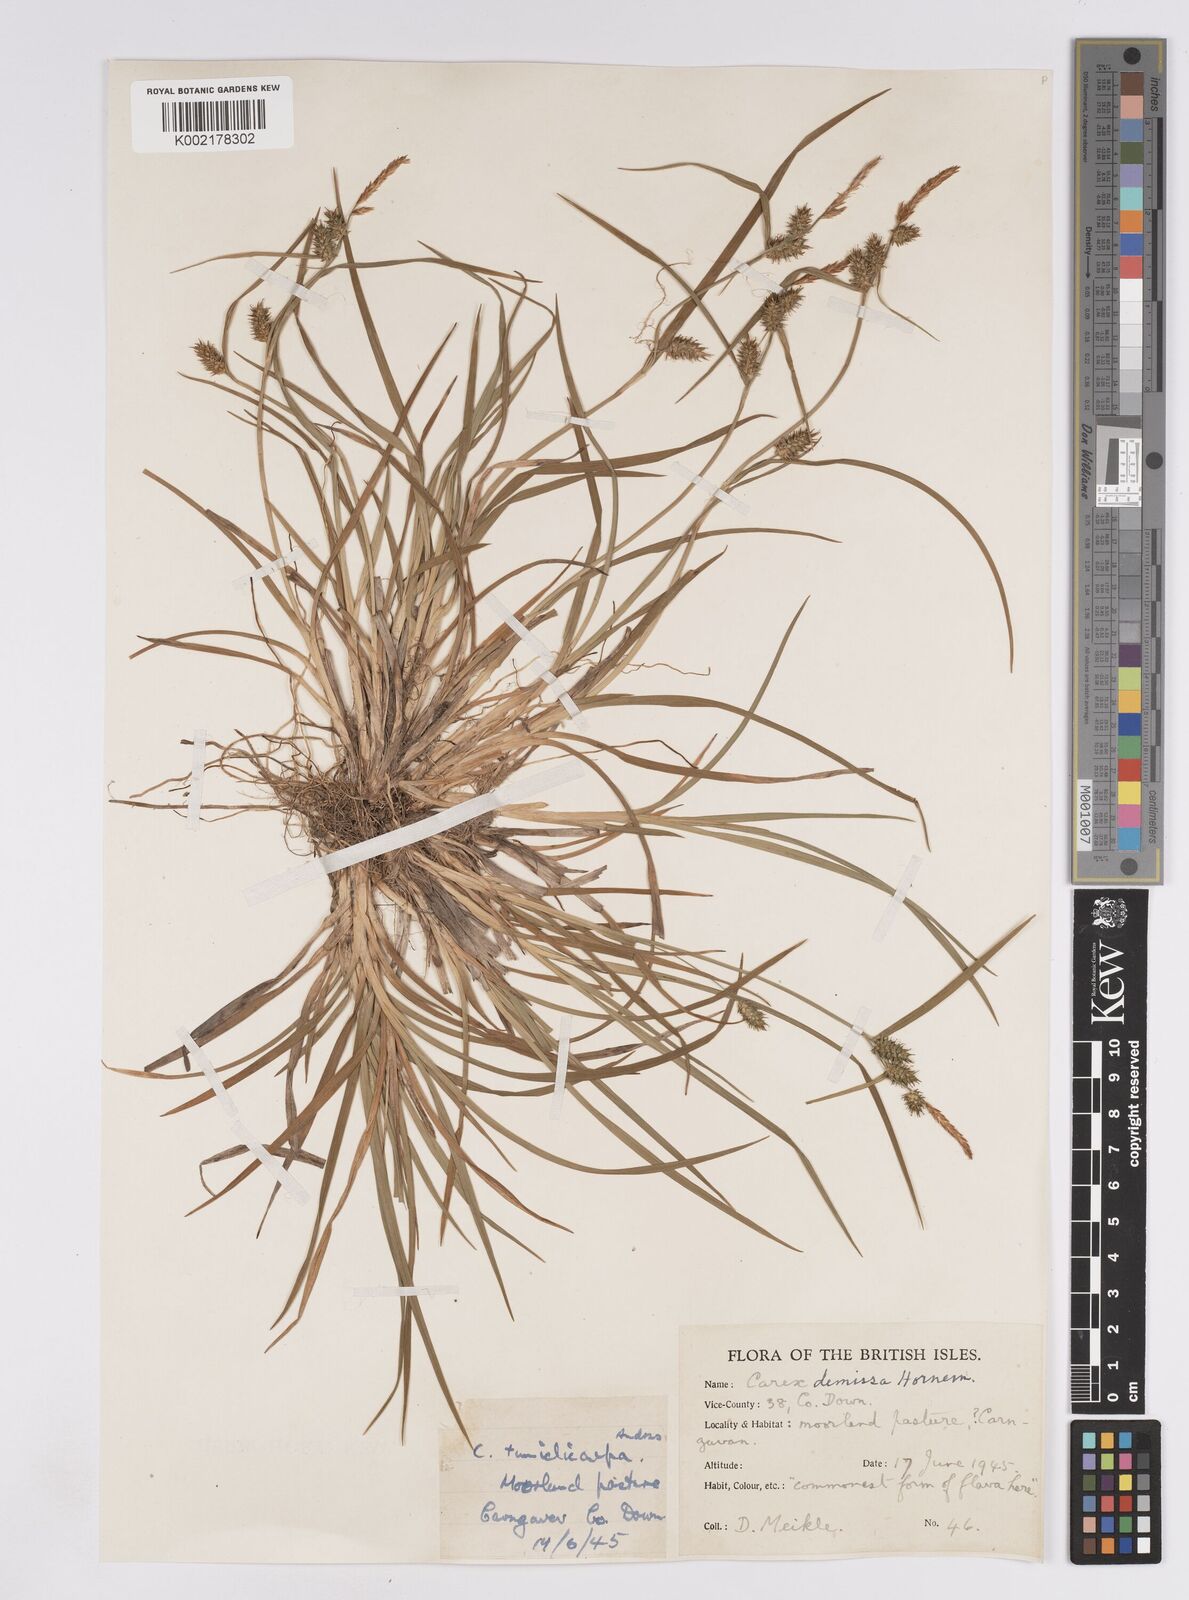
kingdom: Plantae
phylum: Tracheophyta
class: Liliopsida
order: Poales
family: Cyperaceae
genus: Carex
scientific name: Carex demissa
